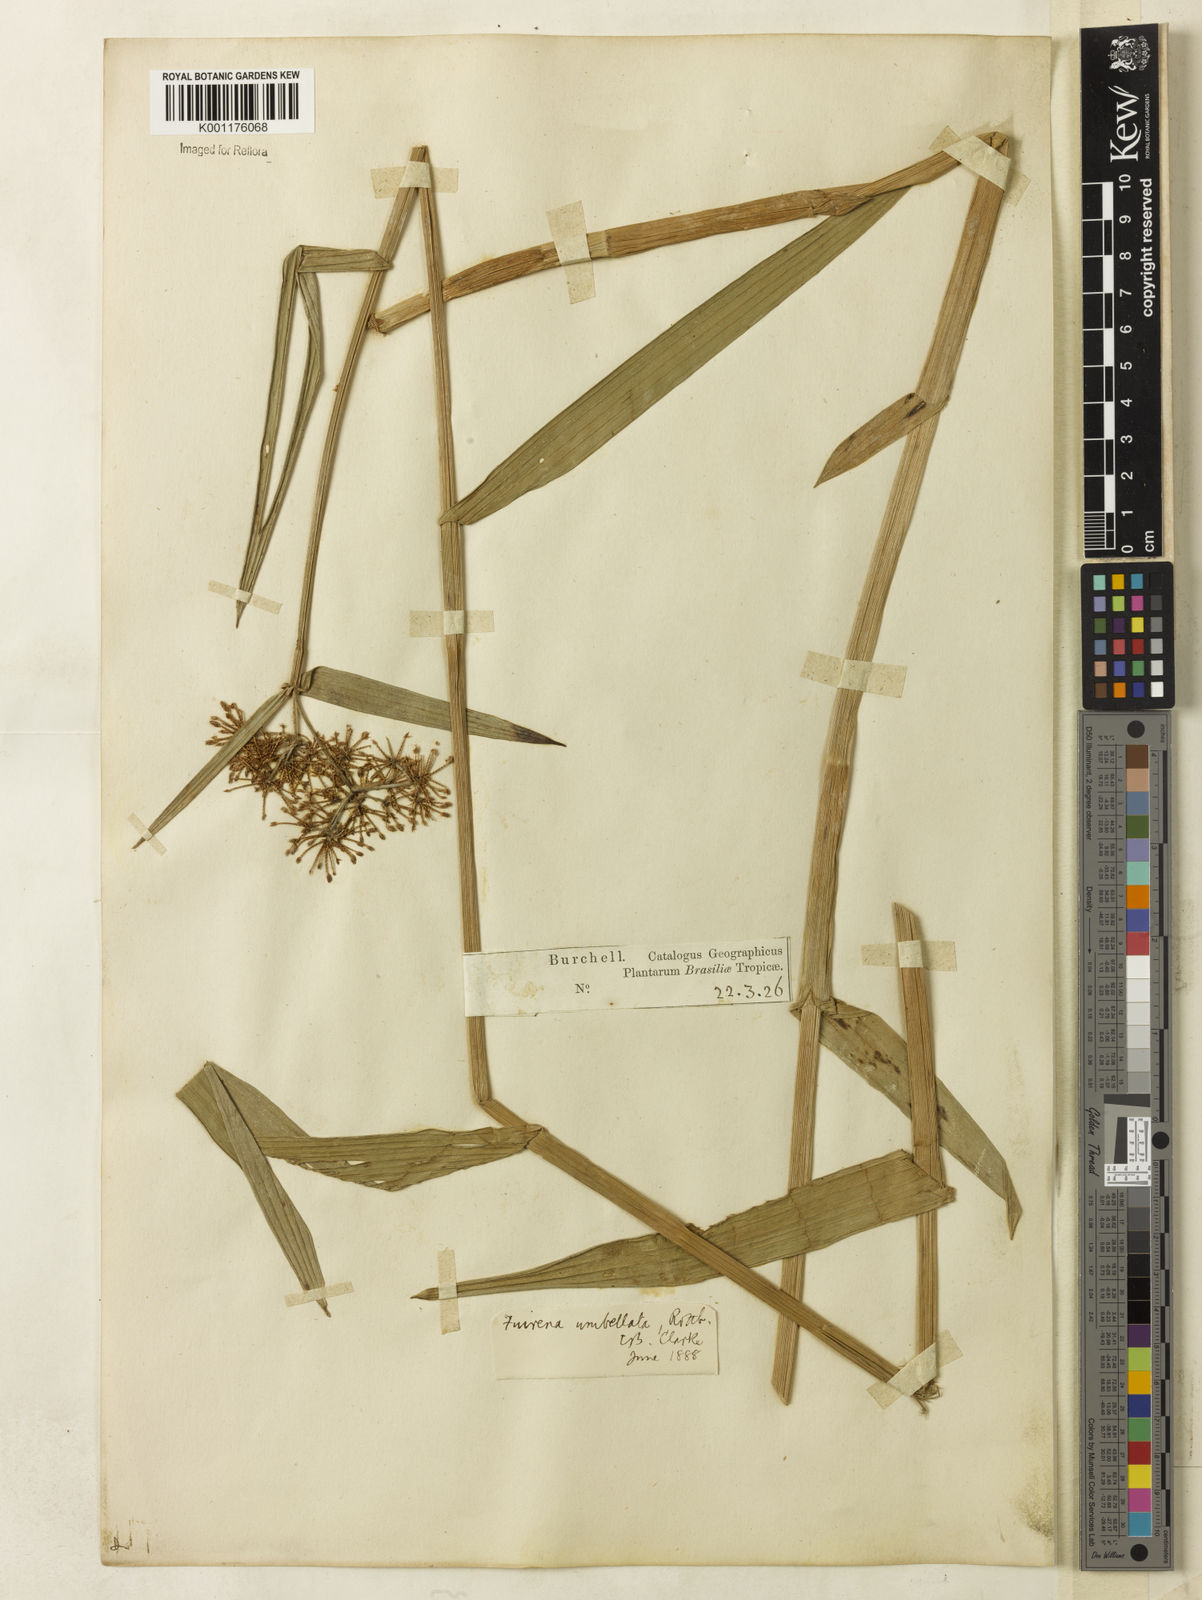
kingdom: Plantae
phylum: Tracheophyta
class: Liliopsida
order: Poales
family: Cyperaceae
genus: Fuirena
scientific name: Fuirena umbellata
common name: Yefen
